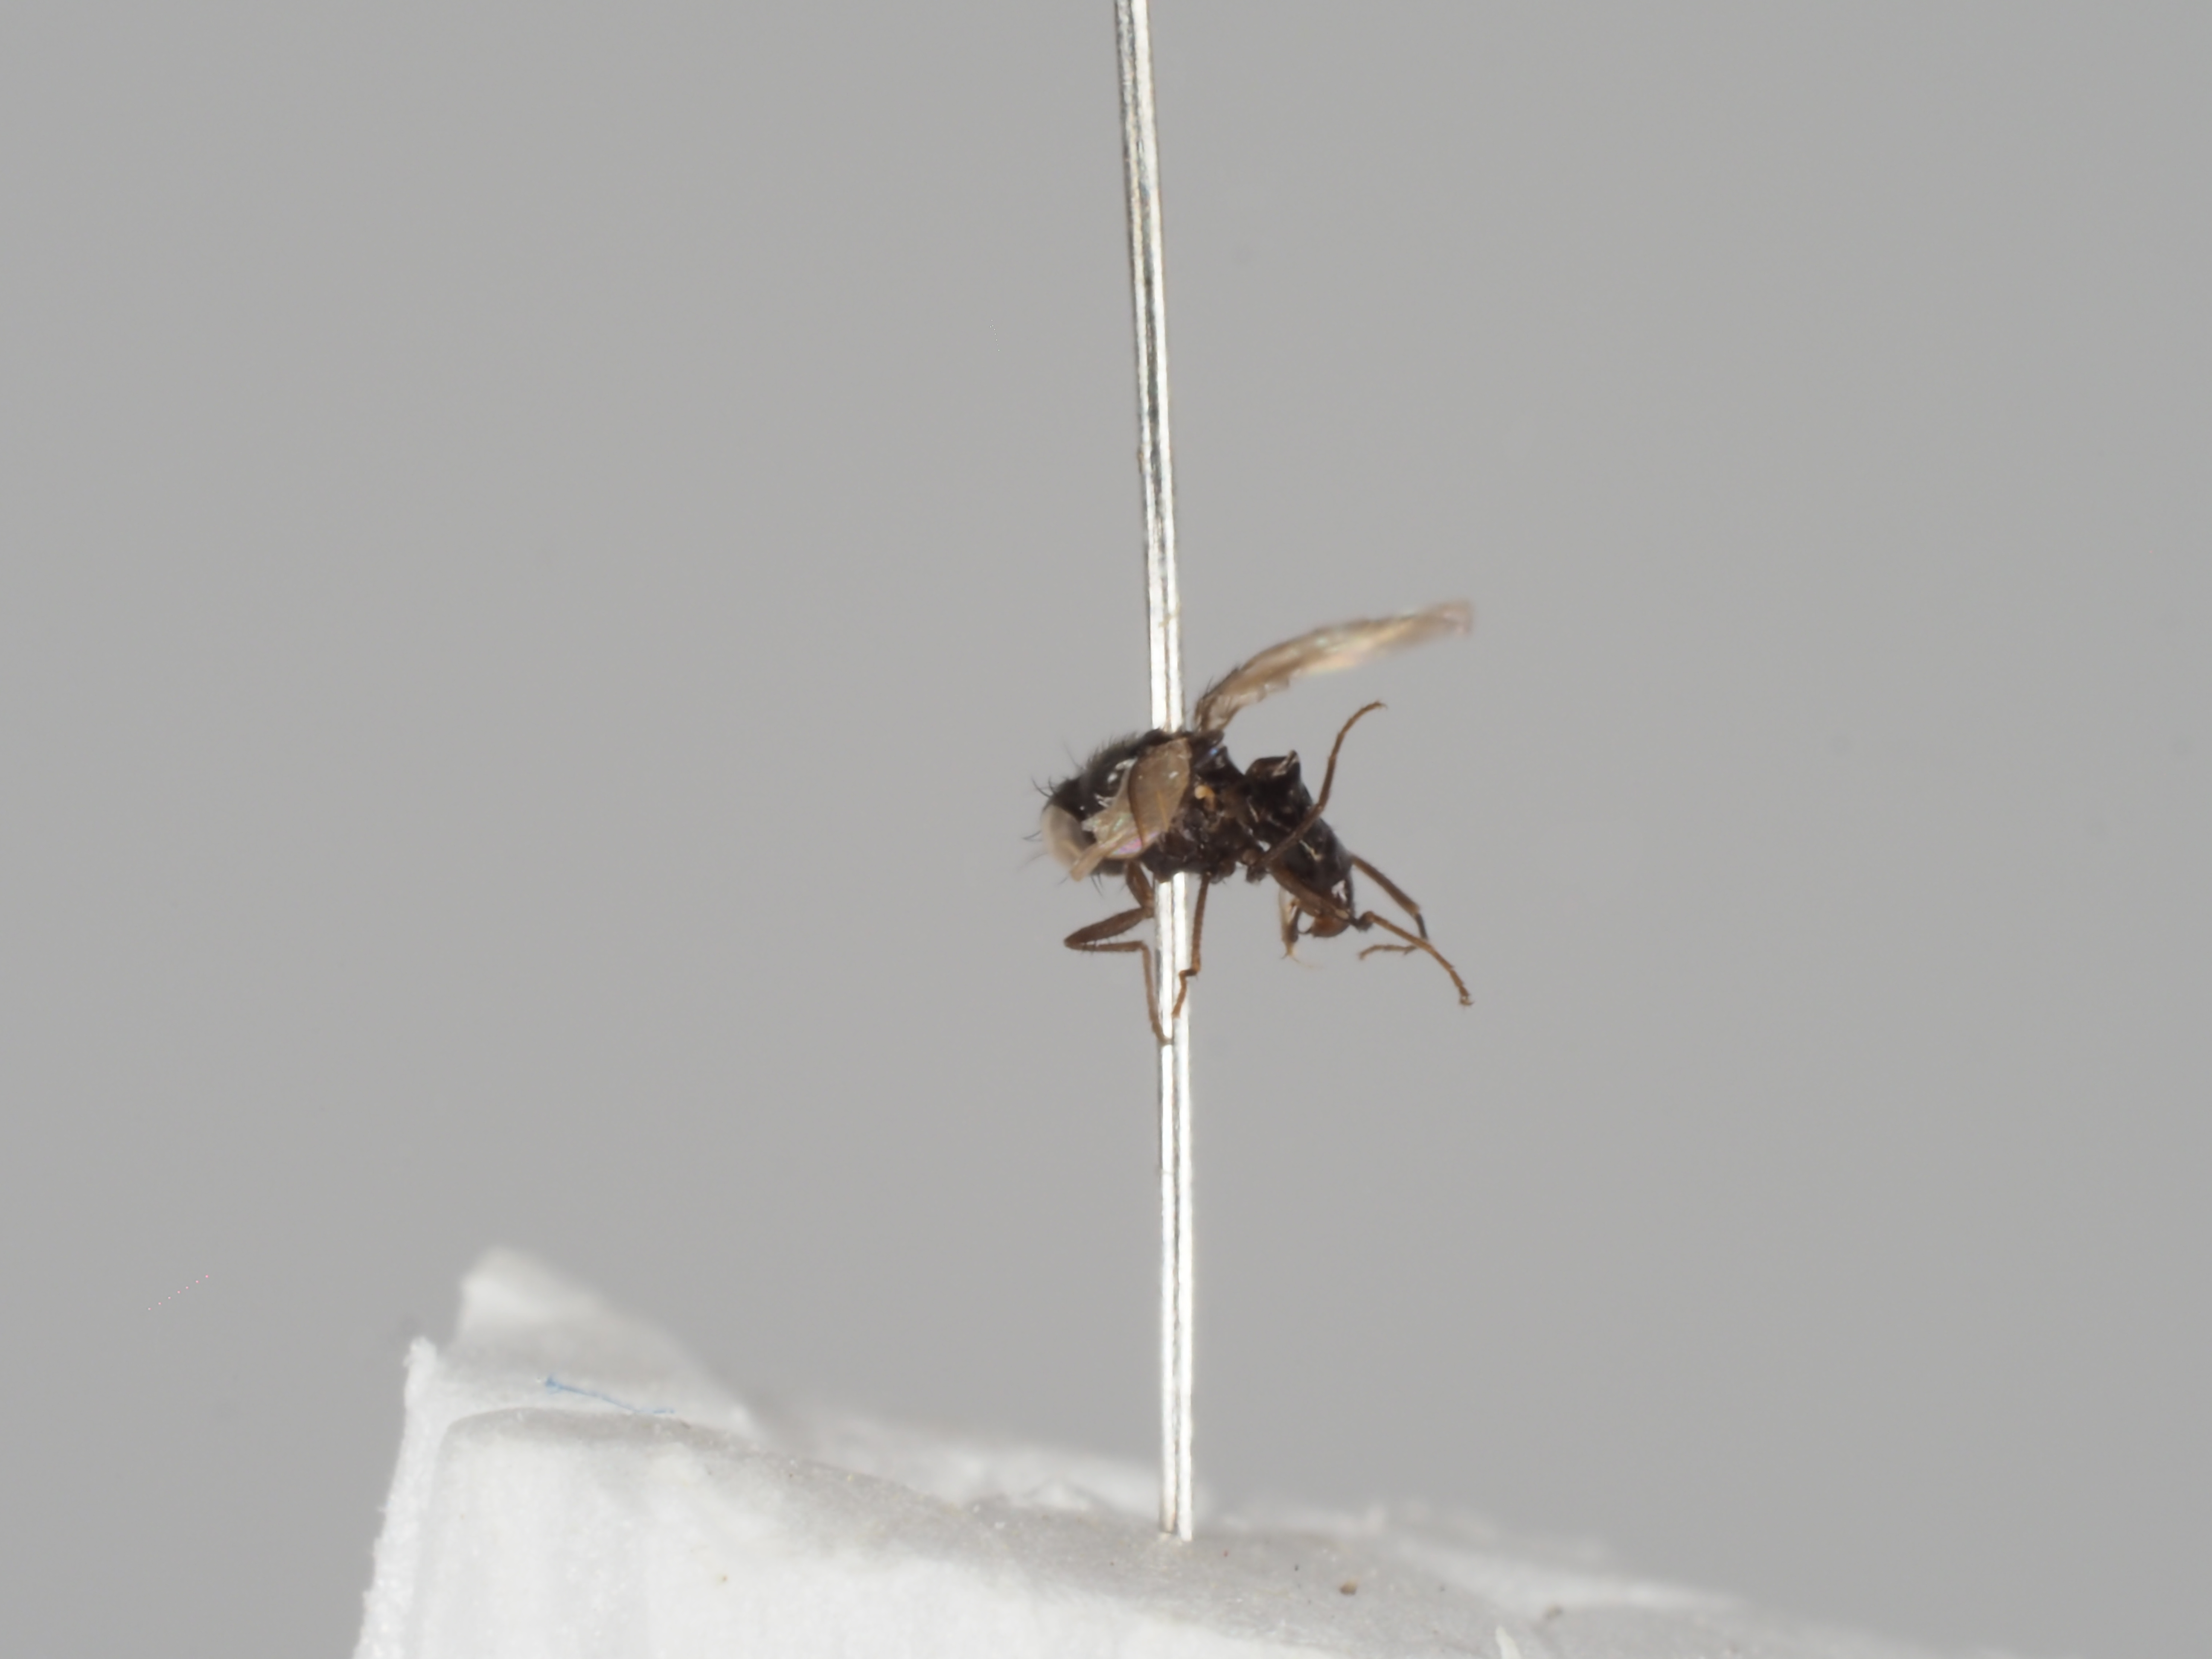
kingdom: Animalia
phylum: Arthropoda
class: Insecta
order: Diptera
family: Carnidae
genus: Meoneura
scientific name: Meoneura neottiophila
